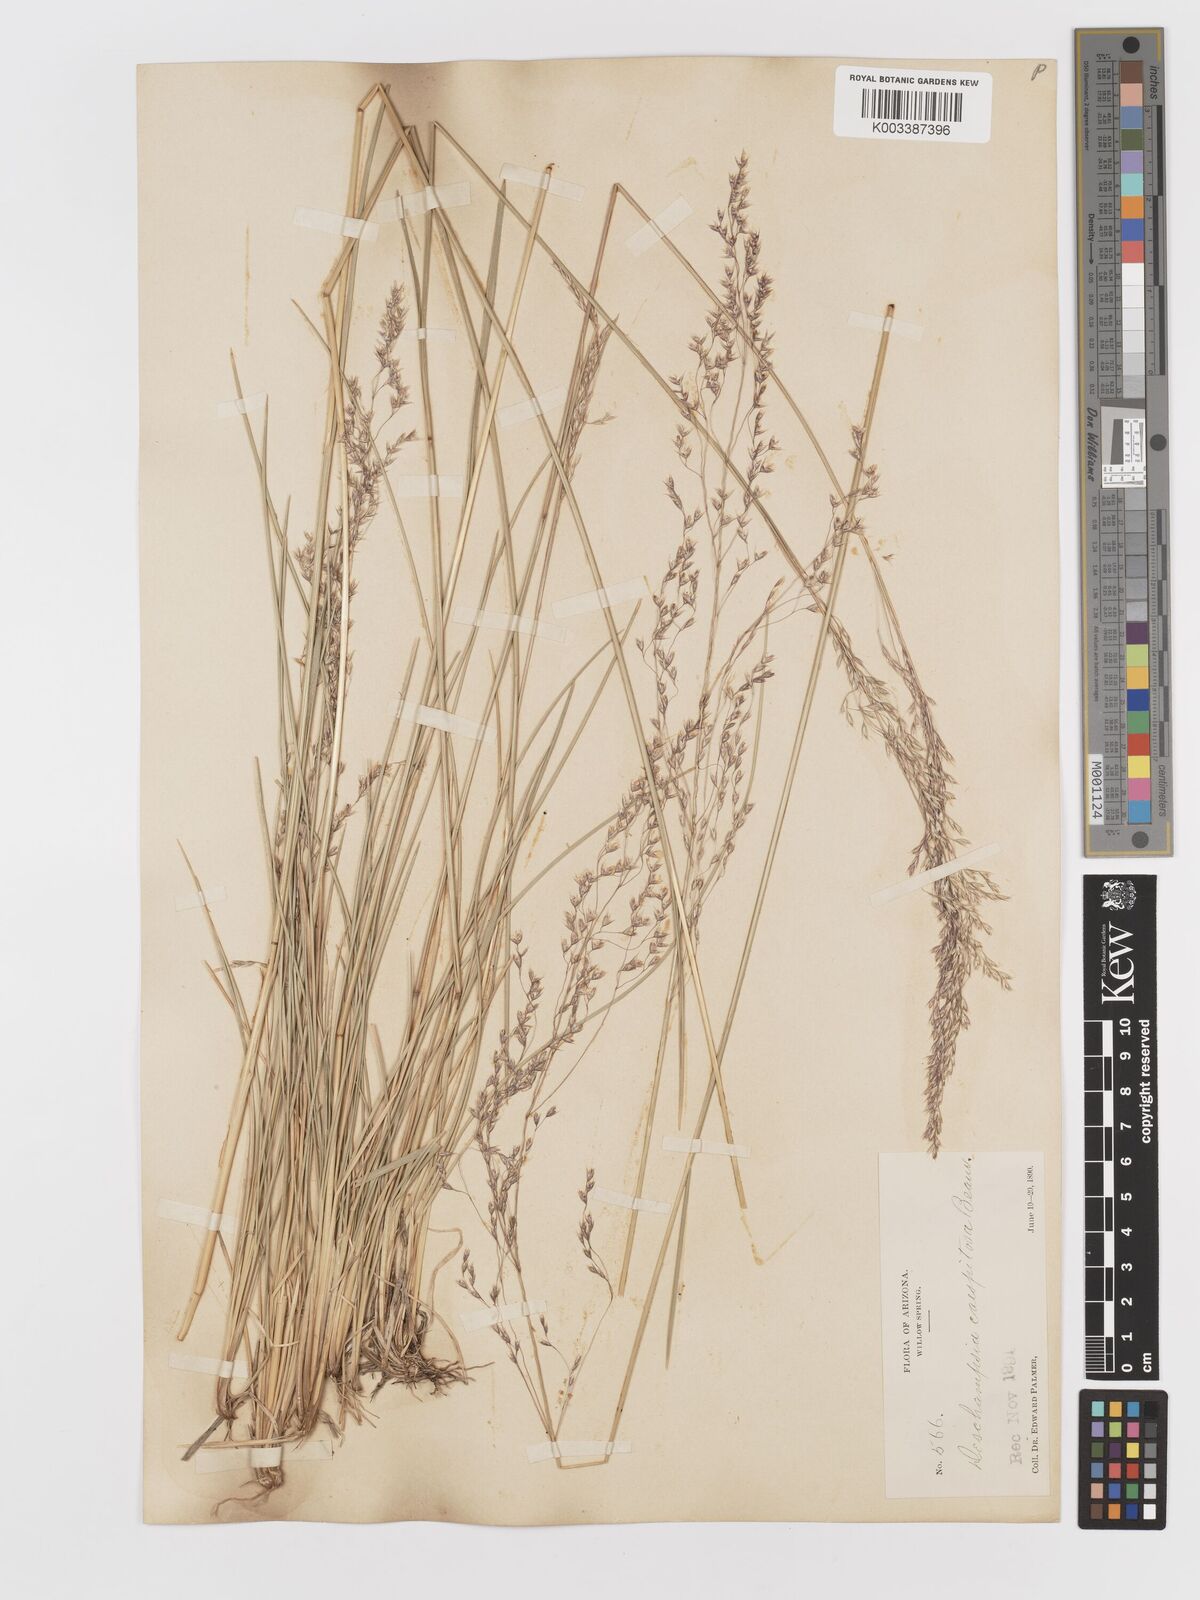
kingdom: Plantae
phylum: Tracheophyta
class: Liliopsida
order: Poales
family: Poaceae
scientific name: Poaceae
